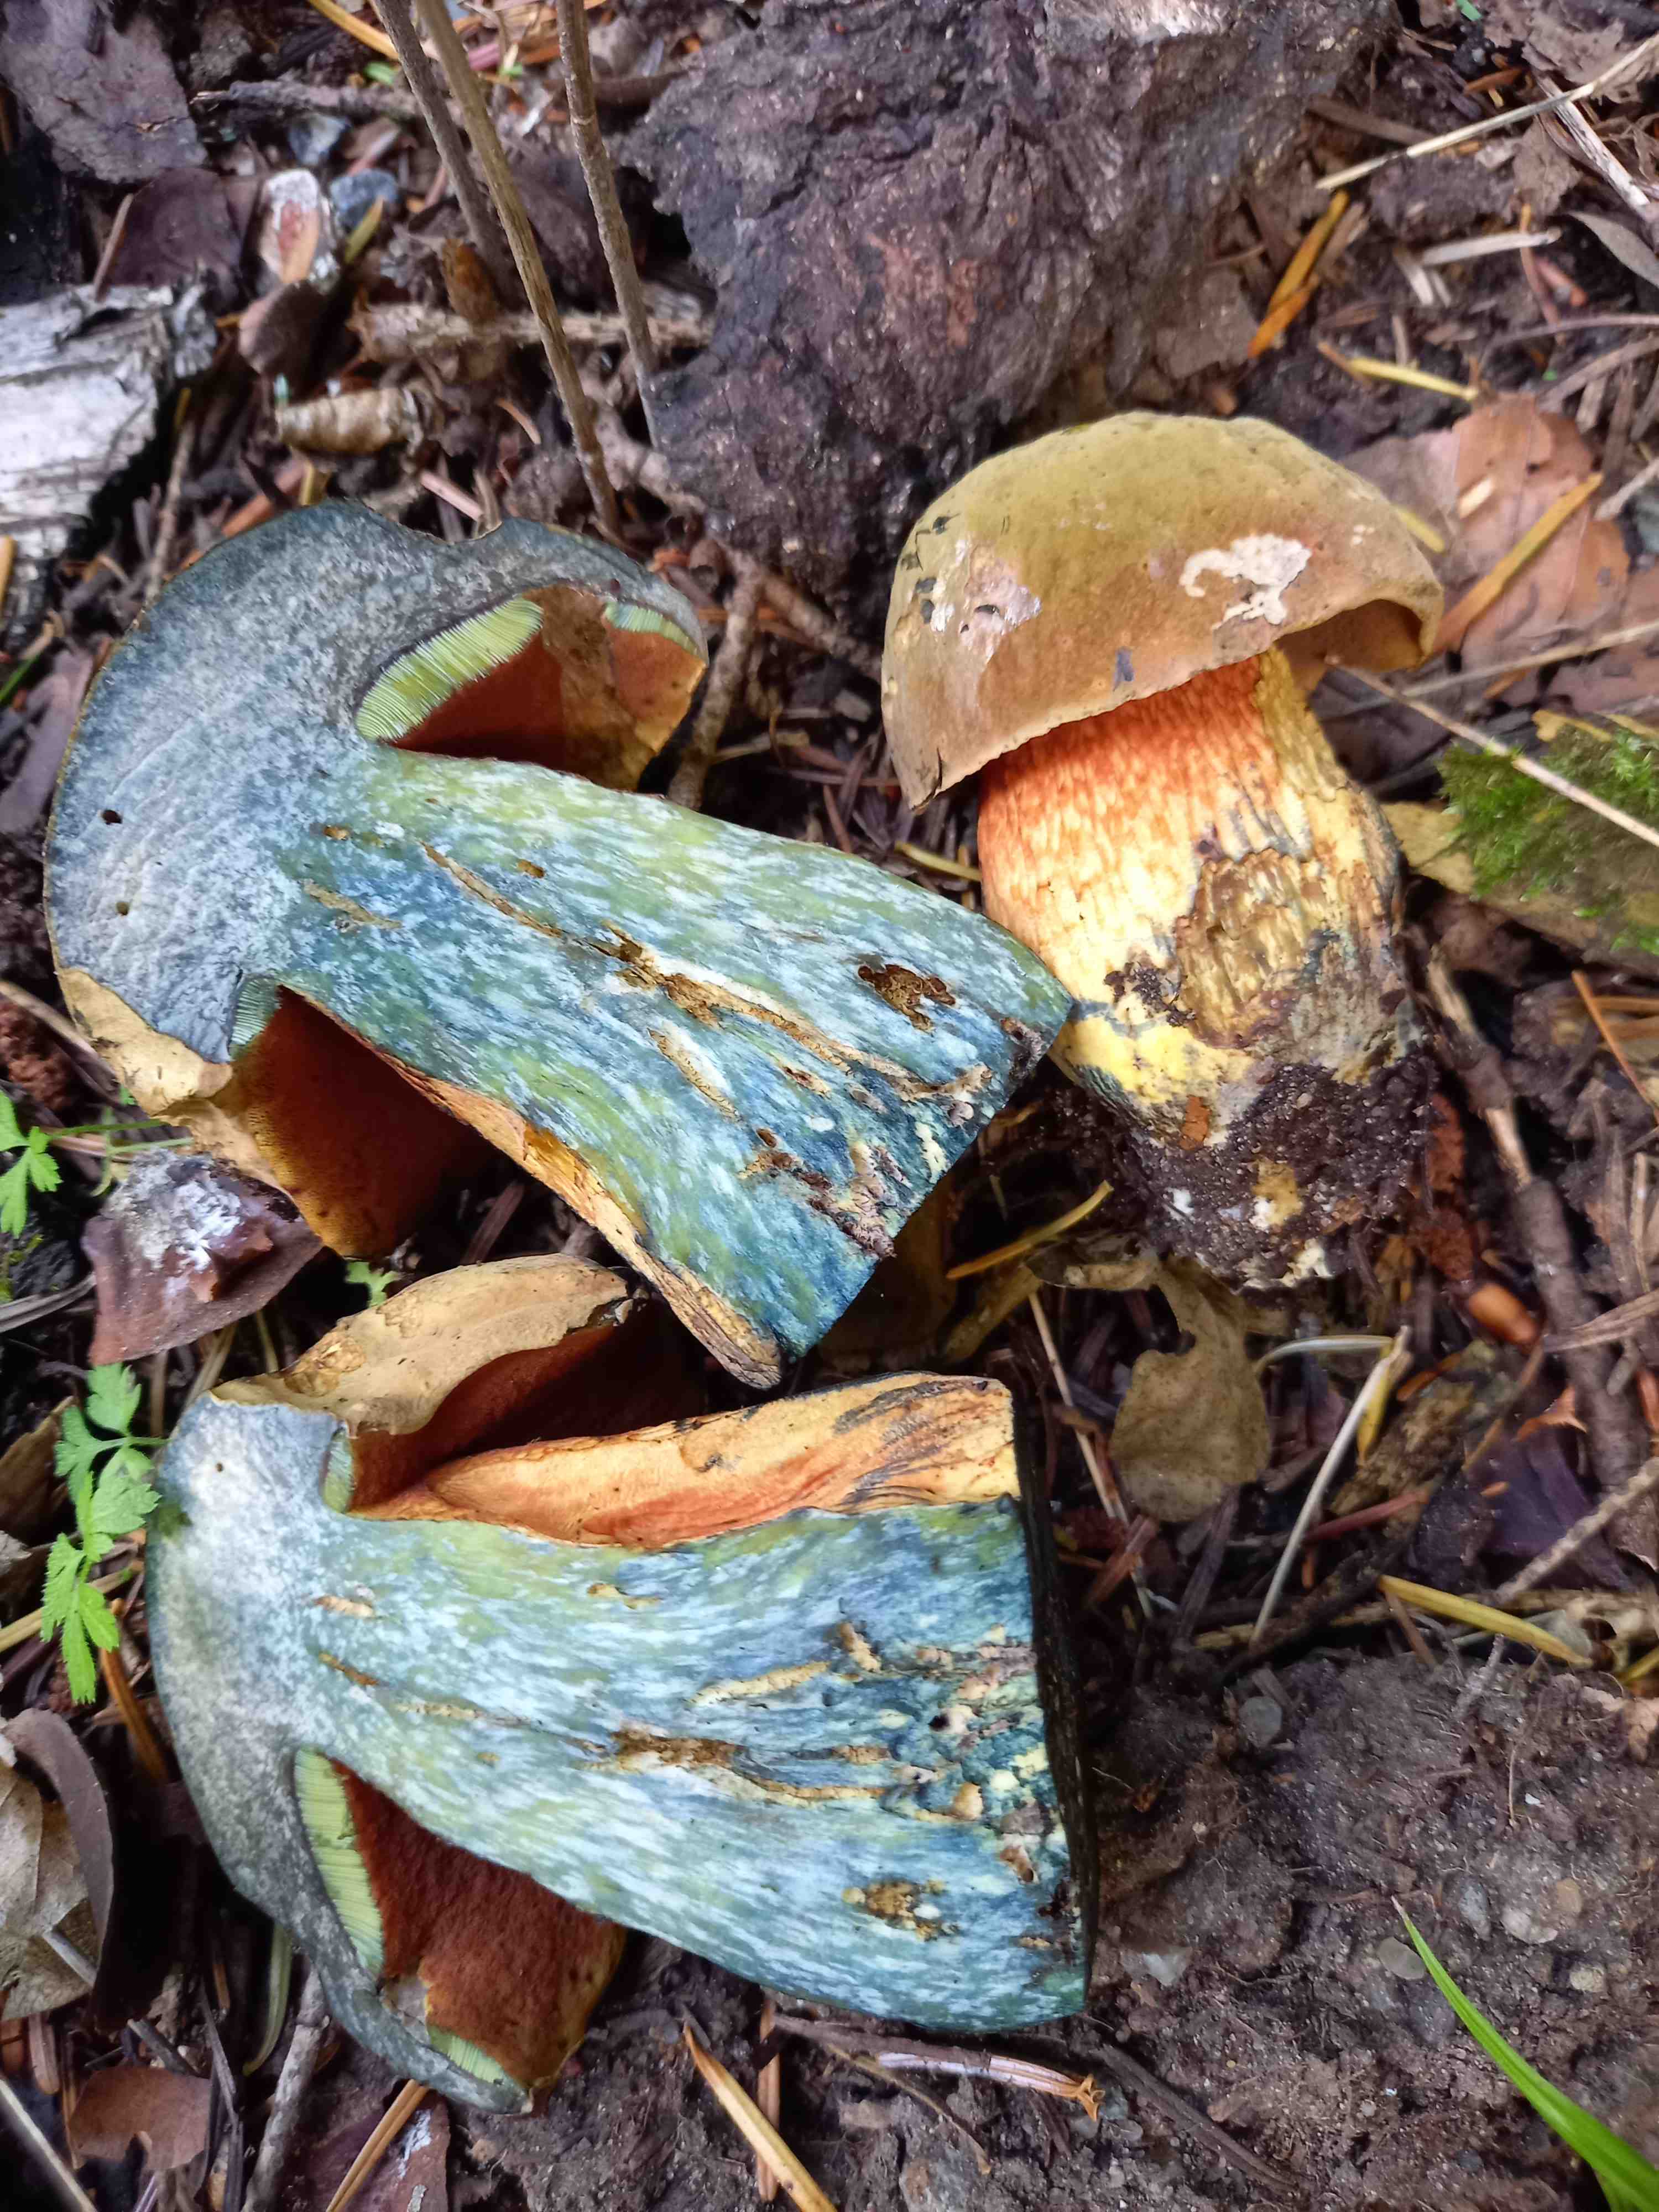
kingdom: Fungi
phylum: Basidiomycota
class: Agaricomycetes
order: Boletales
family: Boletaceae
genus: Suillellus
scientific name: Suillellus luridus
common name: netstokket indigorørhat
